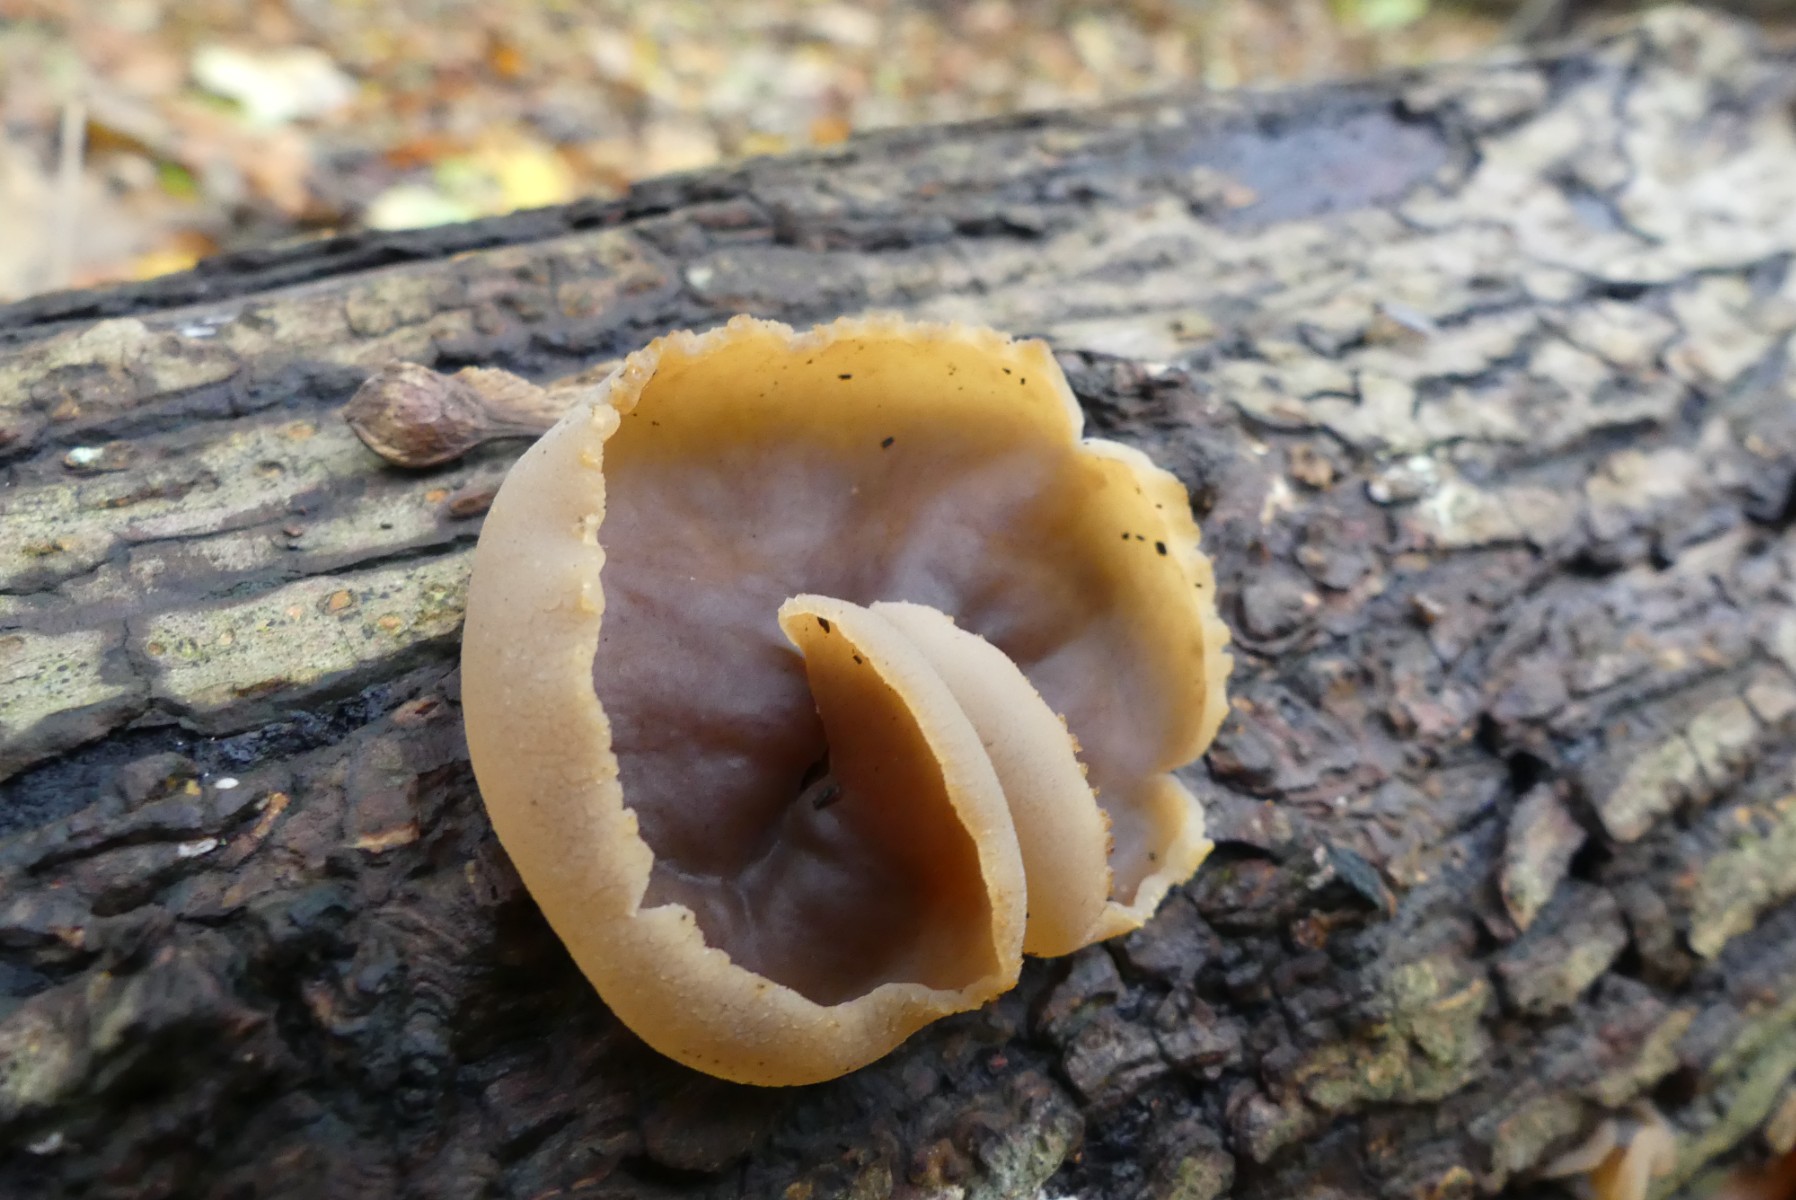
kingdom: Fungi
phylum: Ascomycota
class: Pezizomycetes
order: Pezizales
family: Pezizaceae
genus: Peziza
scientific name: Peziza varia
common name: Ved-bægersvamp
